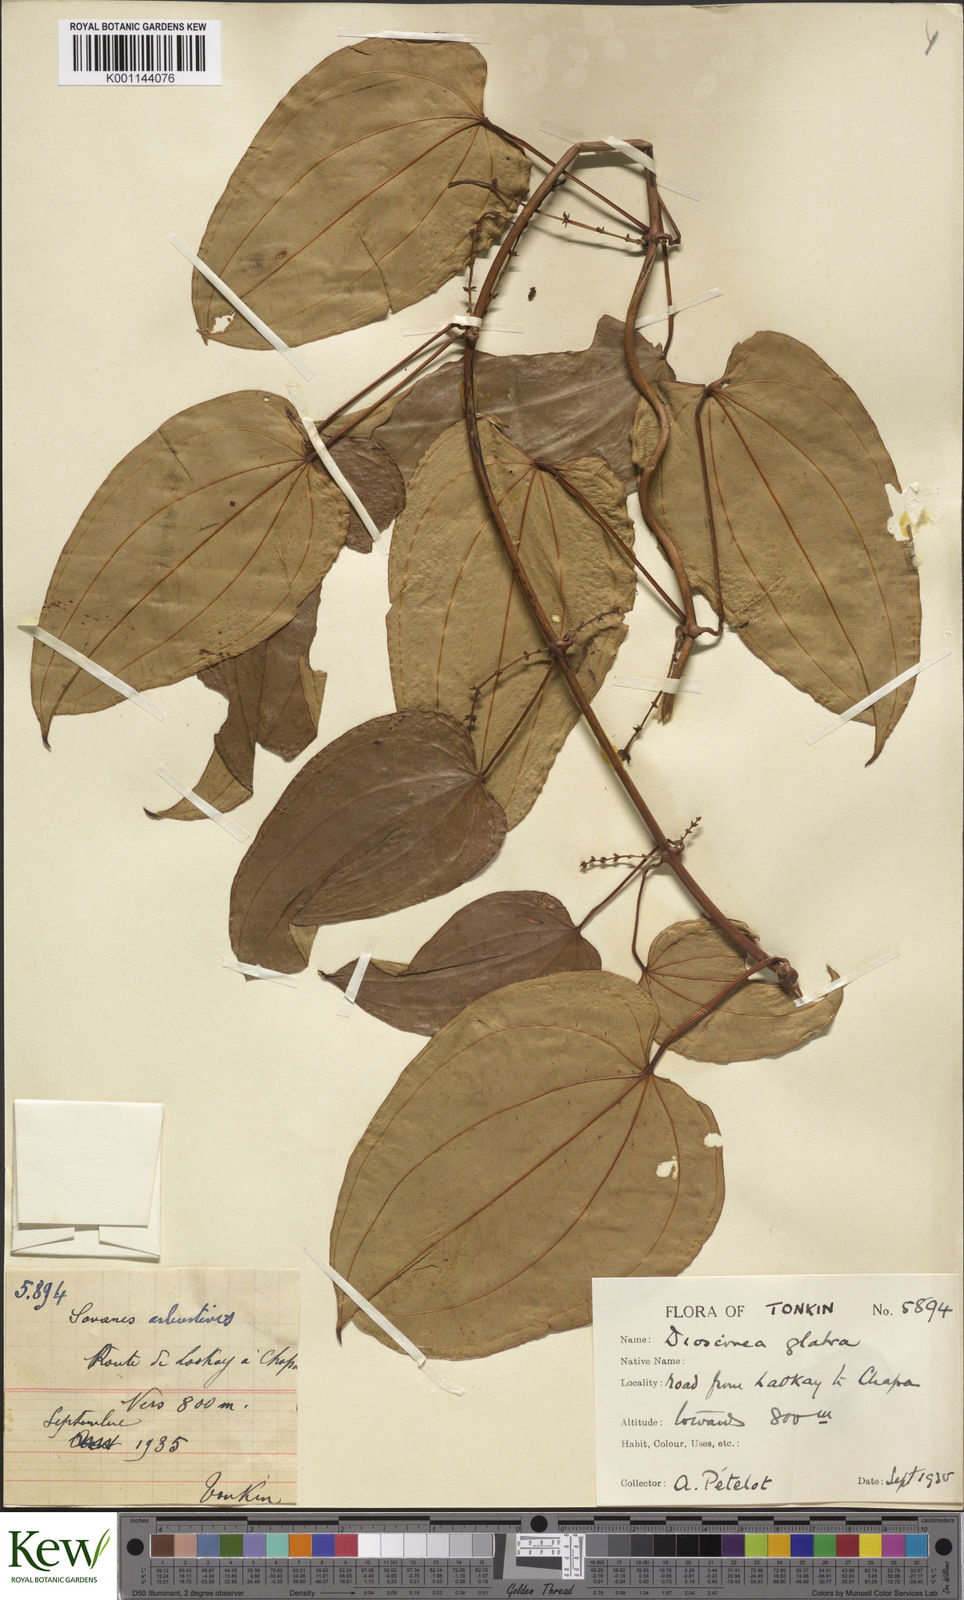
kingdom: Plantae
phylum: Tracheophyta
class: Liliopsida
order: Dioscoreales
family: Dioscoreaceae
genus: Dioscorea
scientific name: Dioscorea glabra
